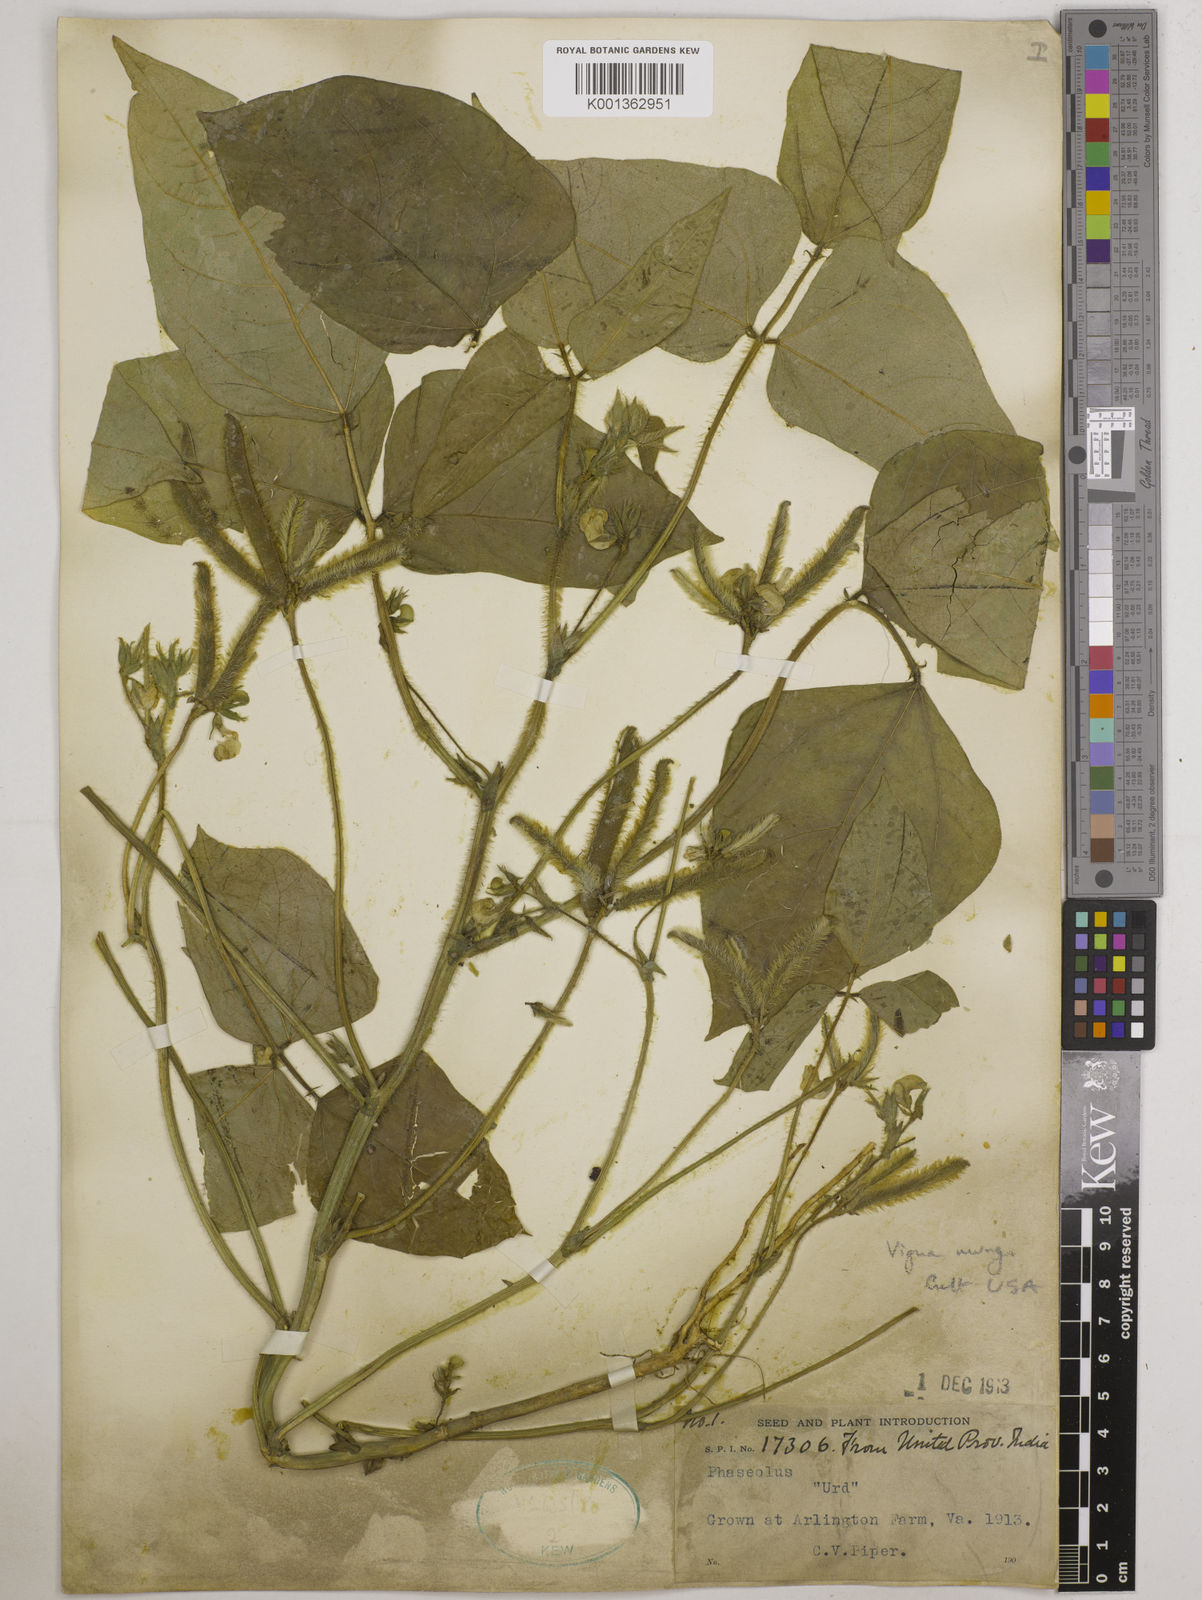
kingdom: Plantae
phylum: Tracheophyta
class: Magnoliopsida
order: Fabales
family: Fabaceae
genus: Vigna
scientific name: Vigna mungo
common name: Black gram
